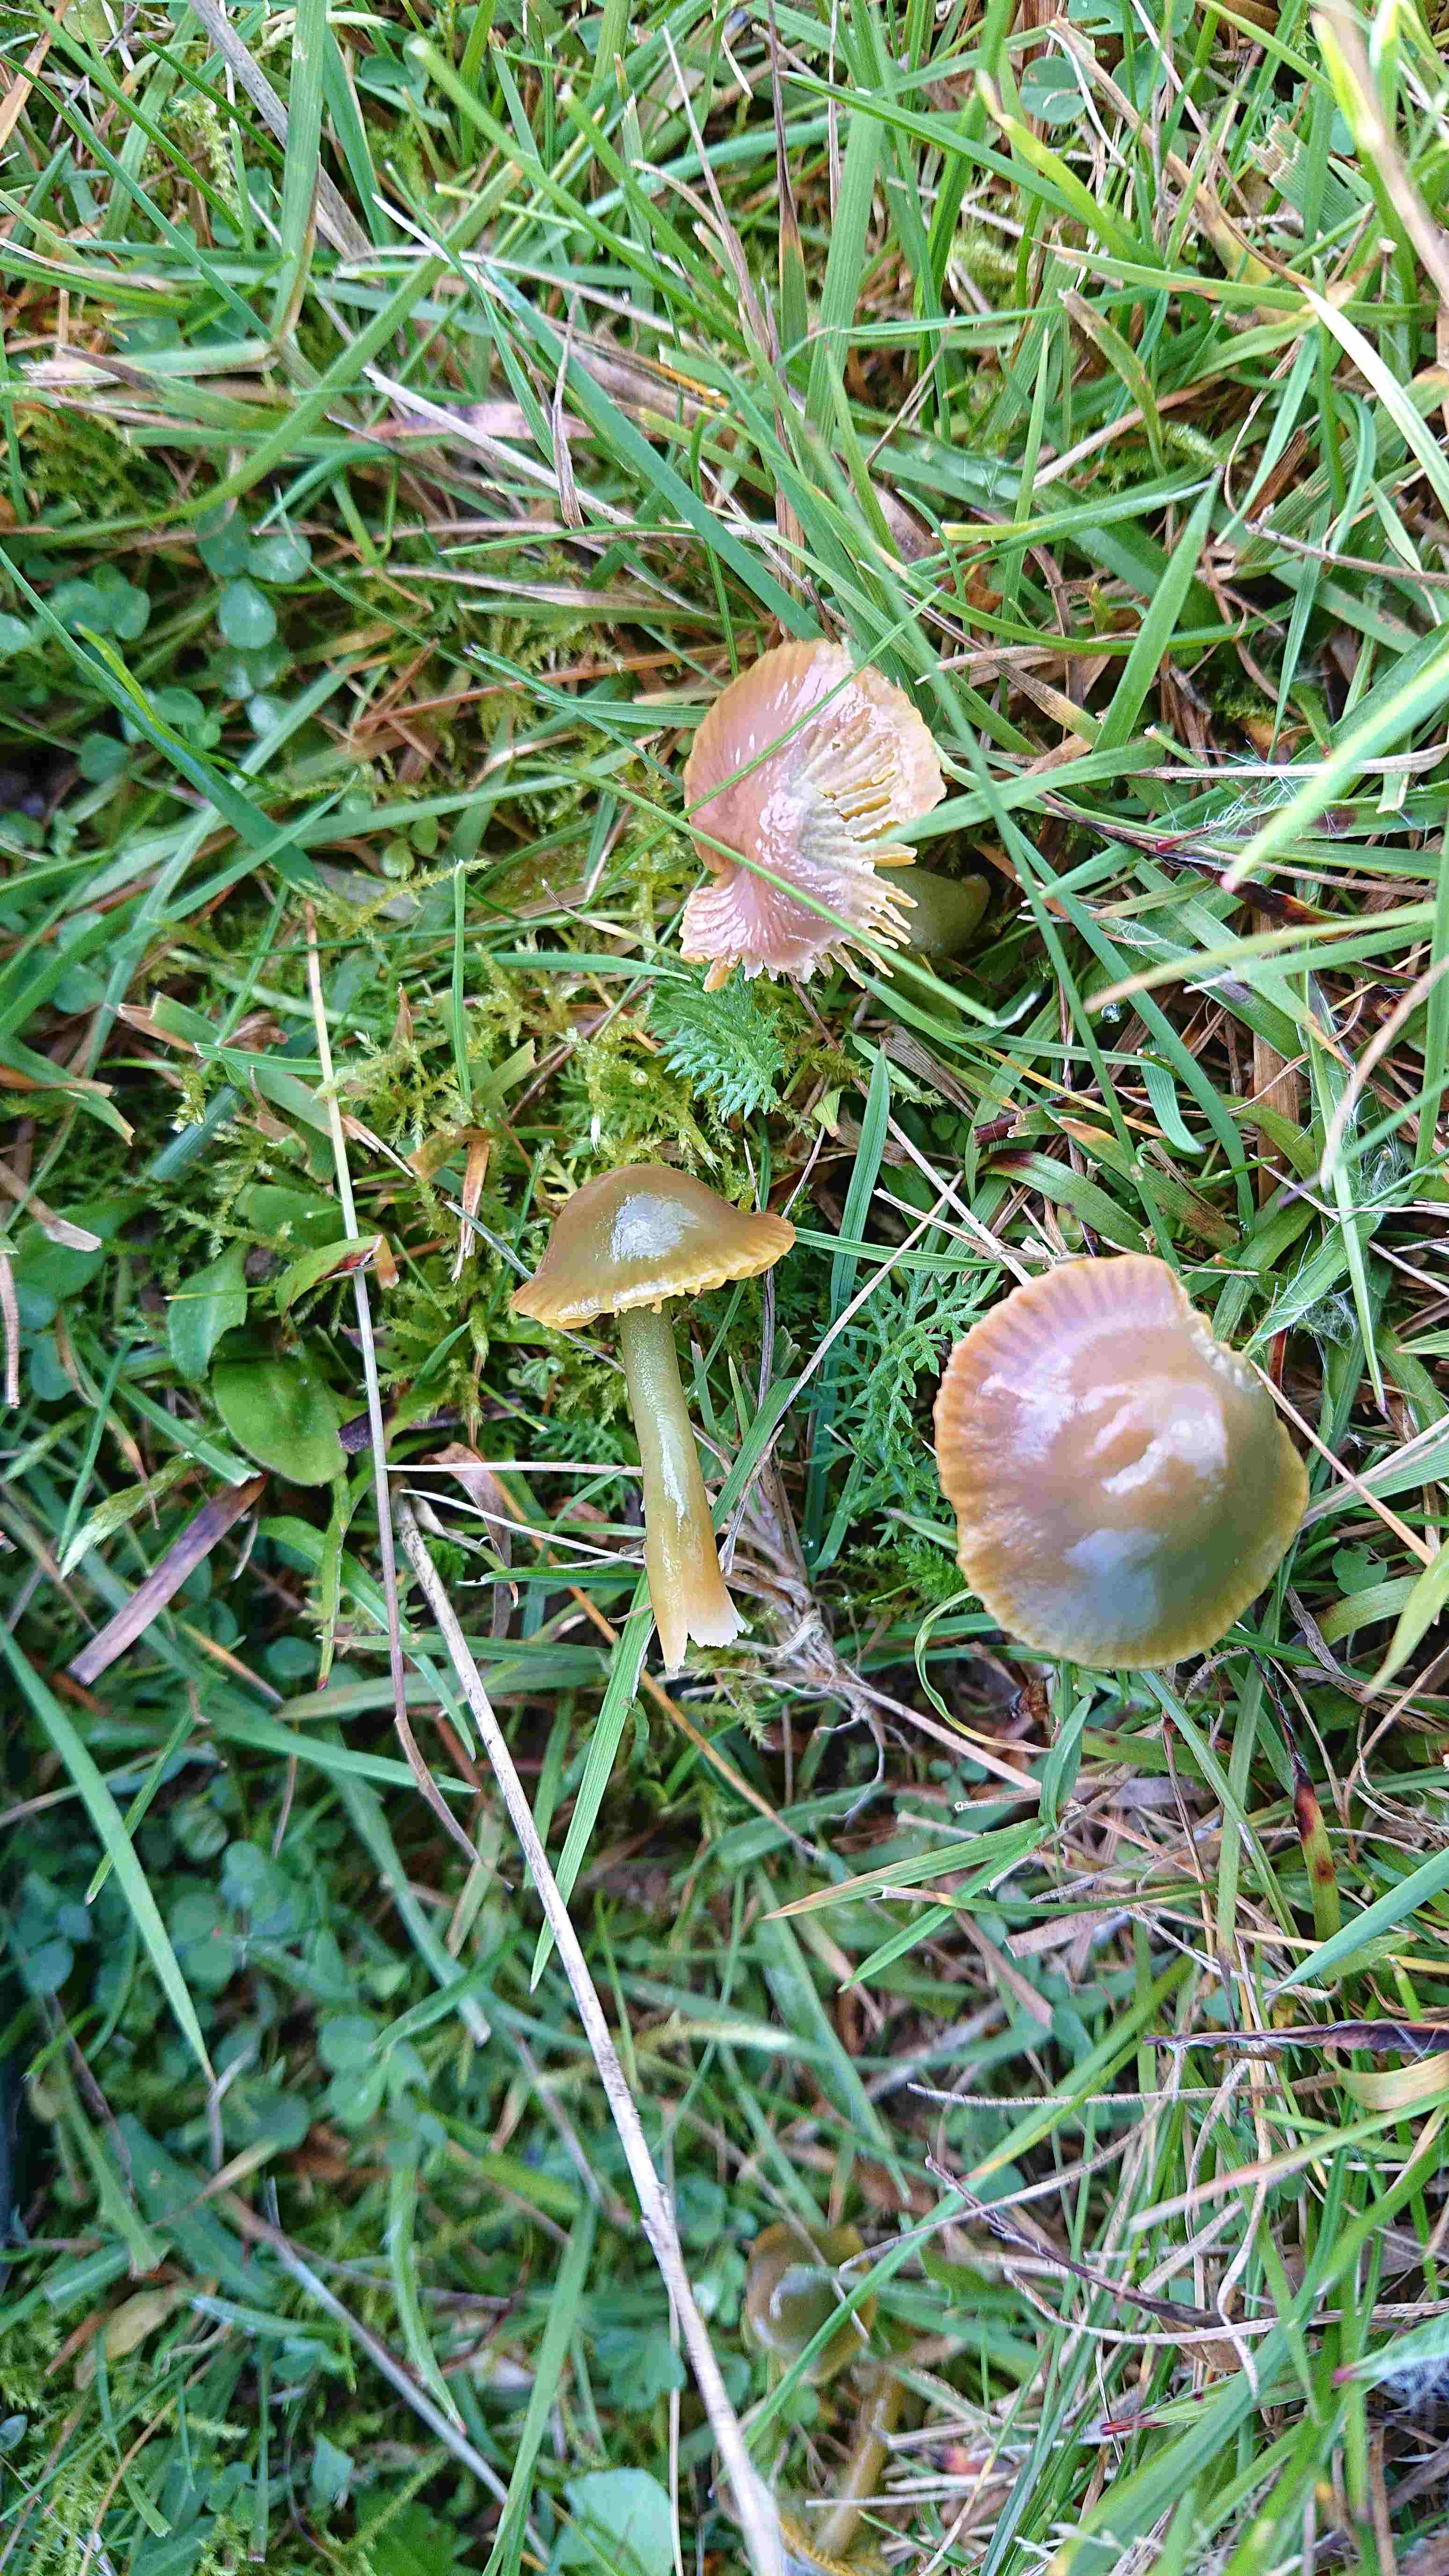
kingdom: Fungi
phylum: Basidiomycota
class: Agaricomycetes
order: Agaricales
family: Hygrophoraceae
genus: Gliophorus
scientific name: Gliophorus psittacinus
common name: papegøje-vokshat
